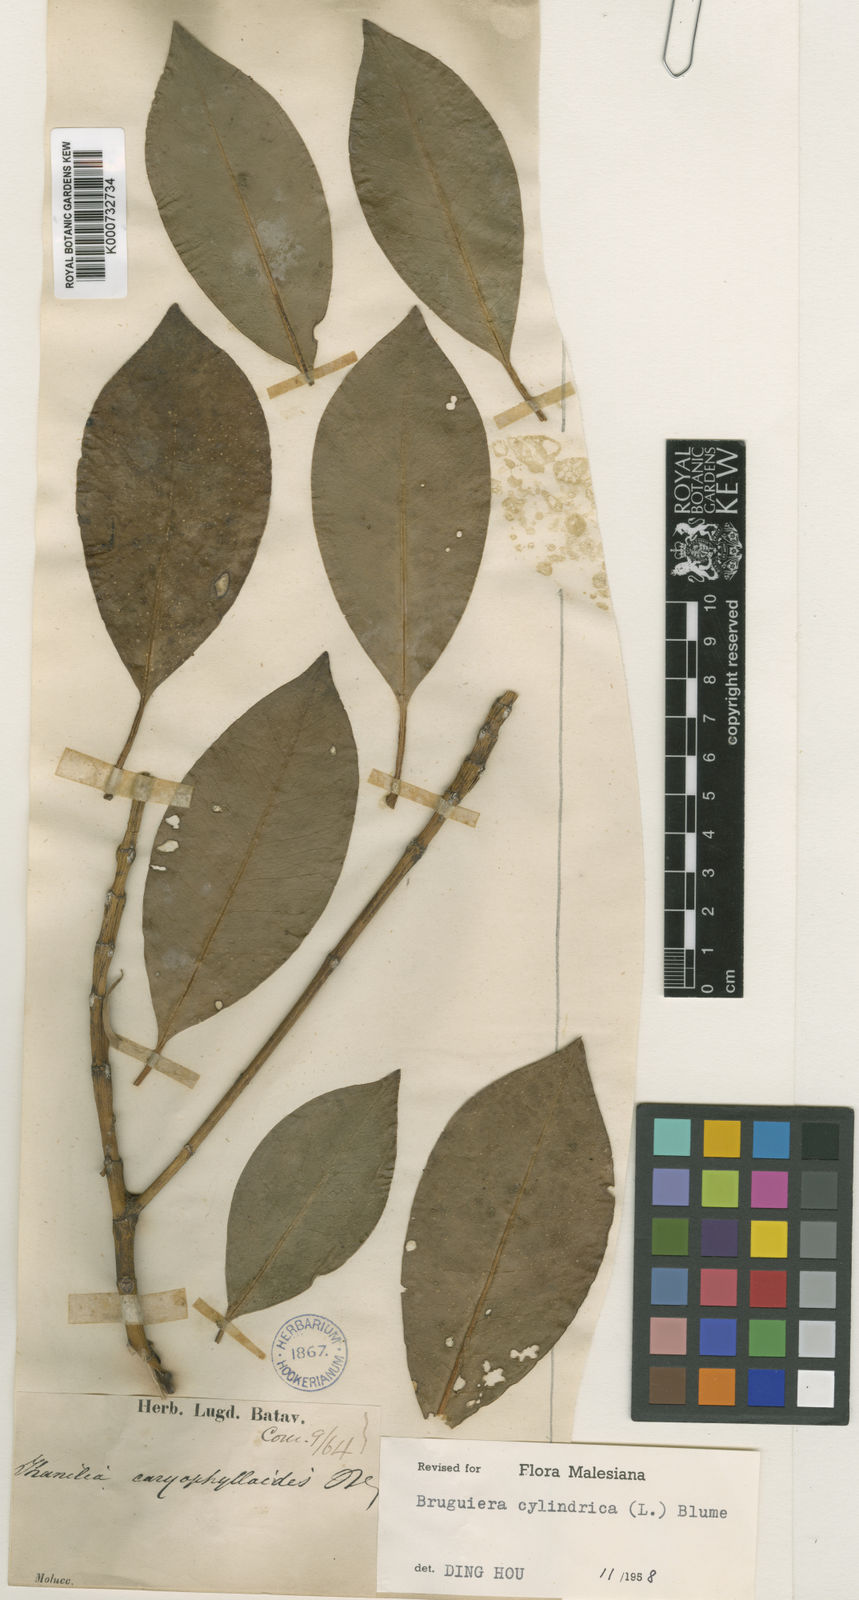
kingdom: Plantae
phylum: Tracheophyta
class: Magnoliopsida
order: Malpighiales
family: Rhizophoraceae
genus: Bruguiera
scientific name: Bruguiera cylindrica
